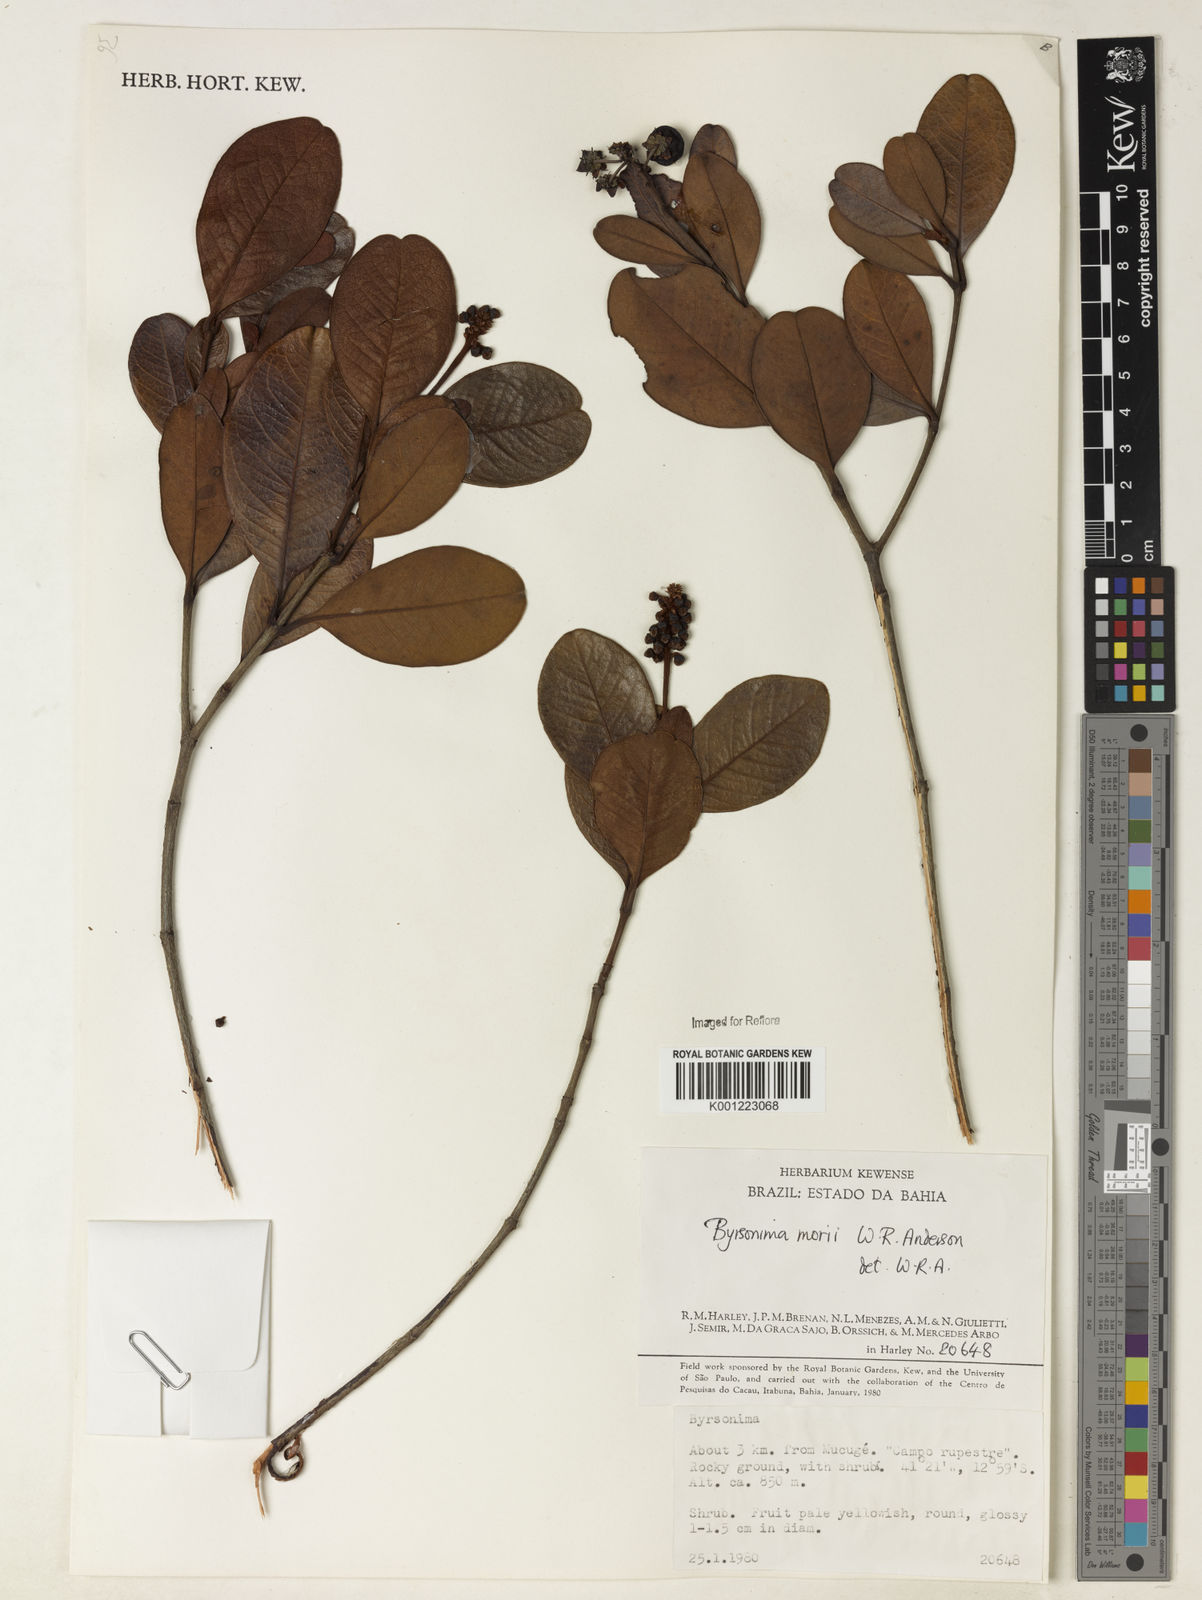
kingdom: Plantae
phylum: Tracheophyta
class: Magnoliopsida
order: Malpighiales
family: Malpighiaceae
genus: Byrsonima
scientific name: Byrsonima morii
